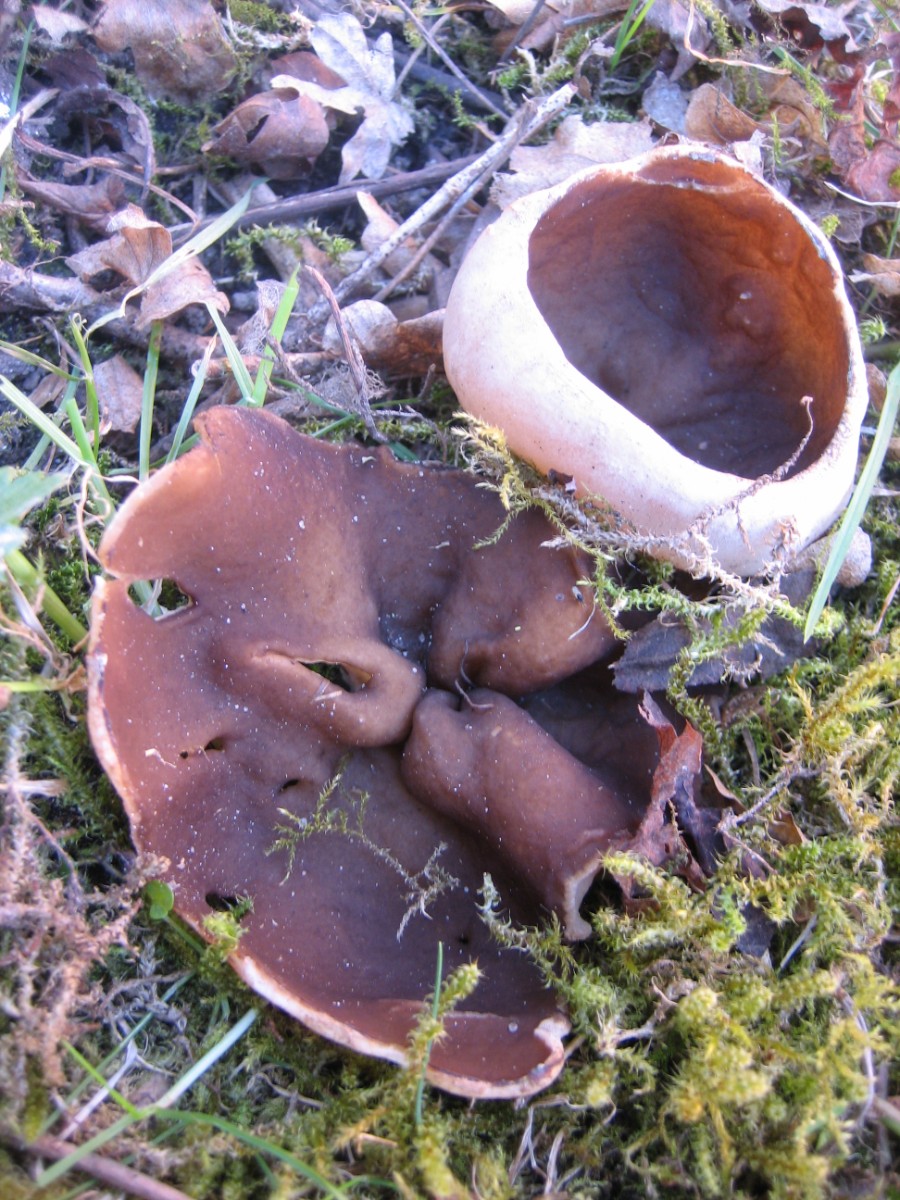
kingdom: Fungi
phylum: Ascomycota
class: Pezizomycetes
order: Pezizales
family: Morchellaceae
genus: Disciotis
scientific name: Disciotis venosa
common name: klor-bægermorkel
